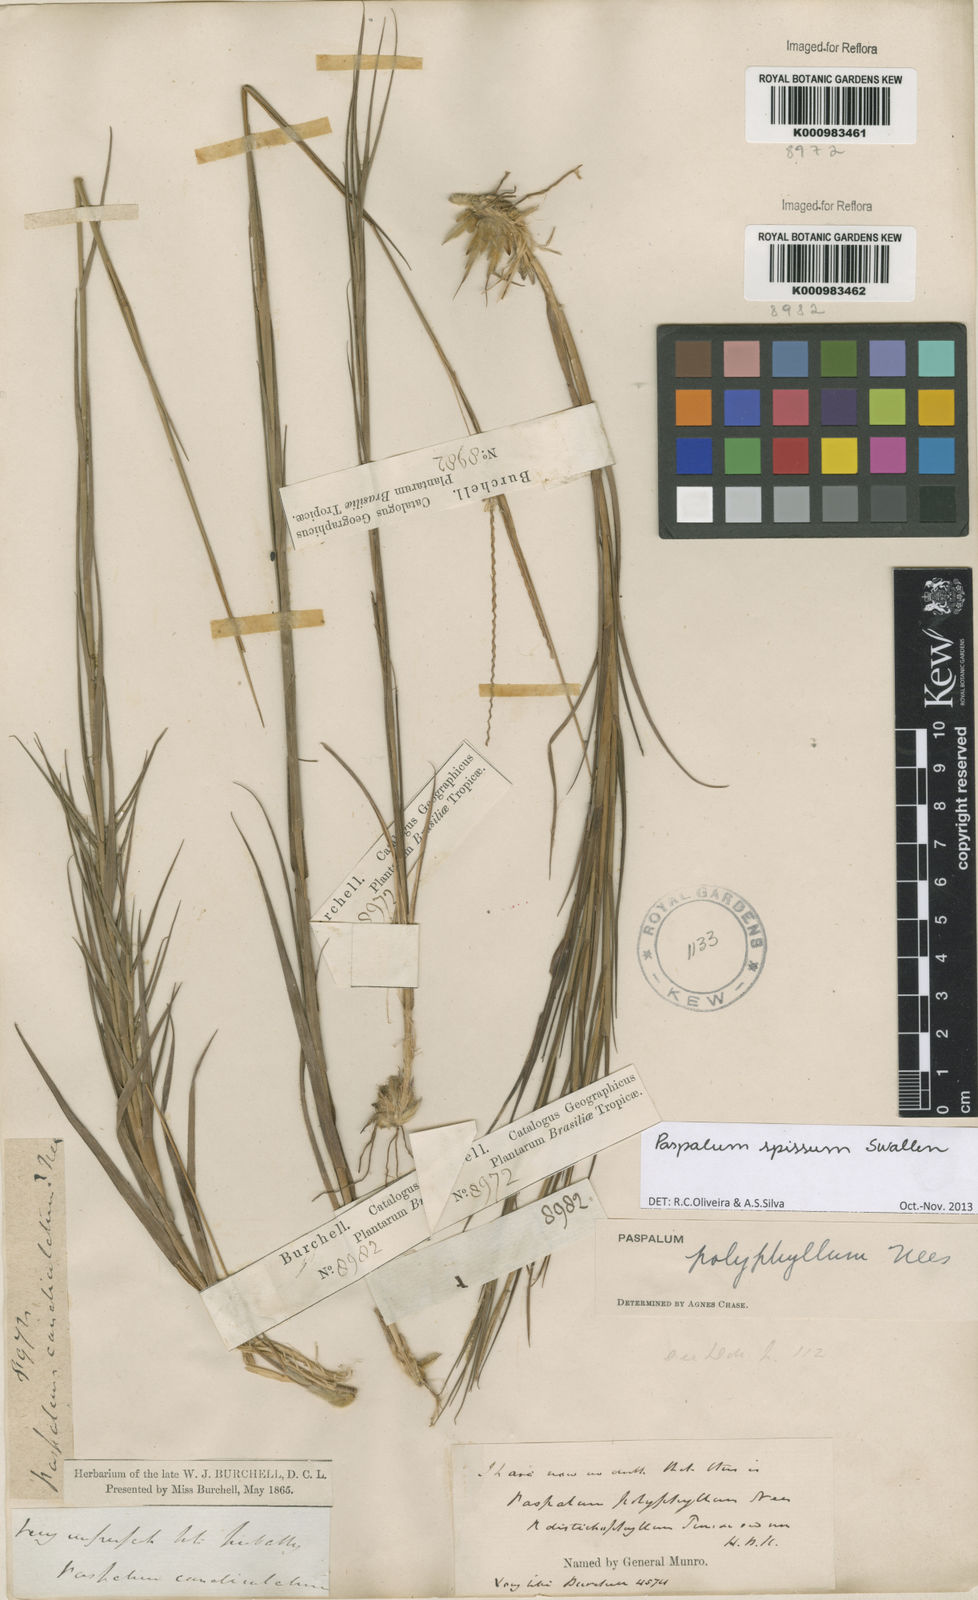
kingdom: Plantae
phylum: Tracheophyta
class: Liliopsida
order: Poales
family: Poaceae
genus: Paspalum
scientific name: Paspalum carinatum
